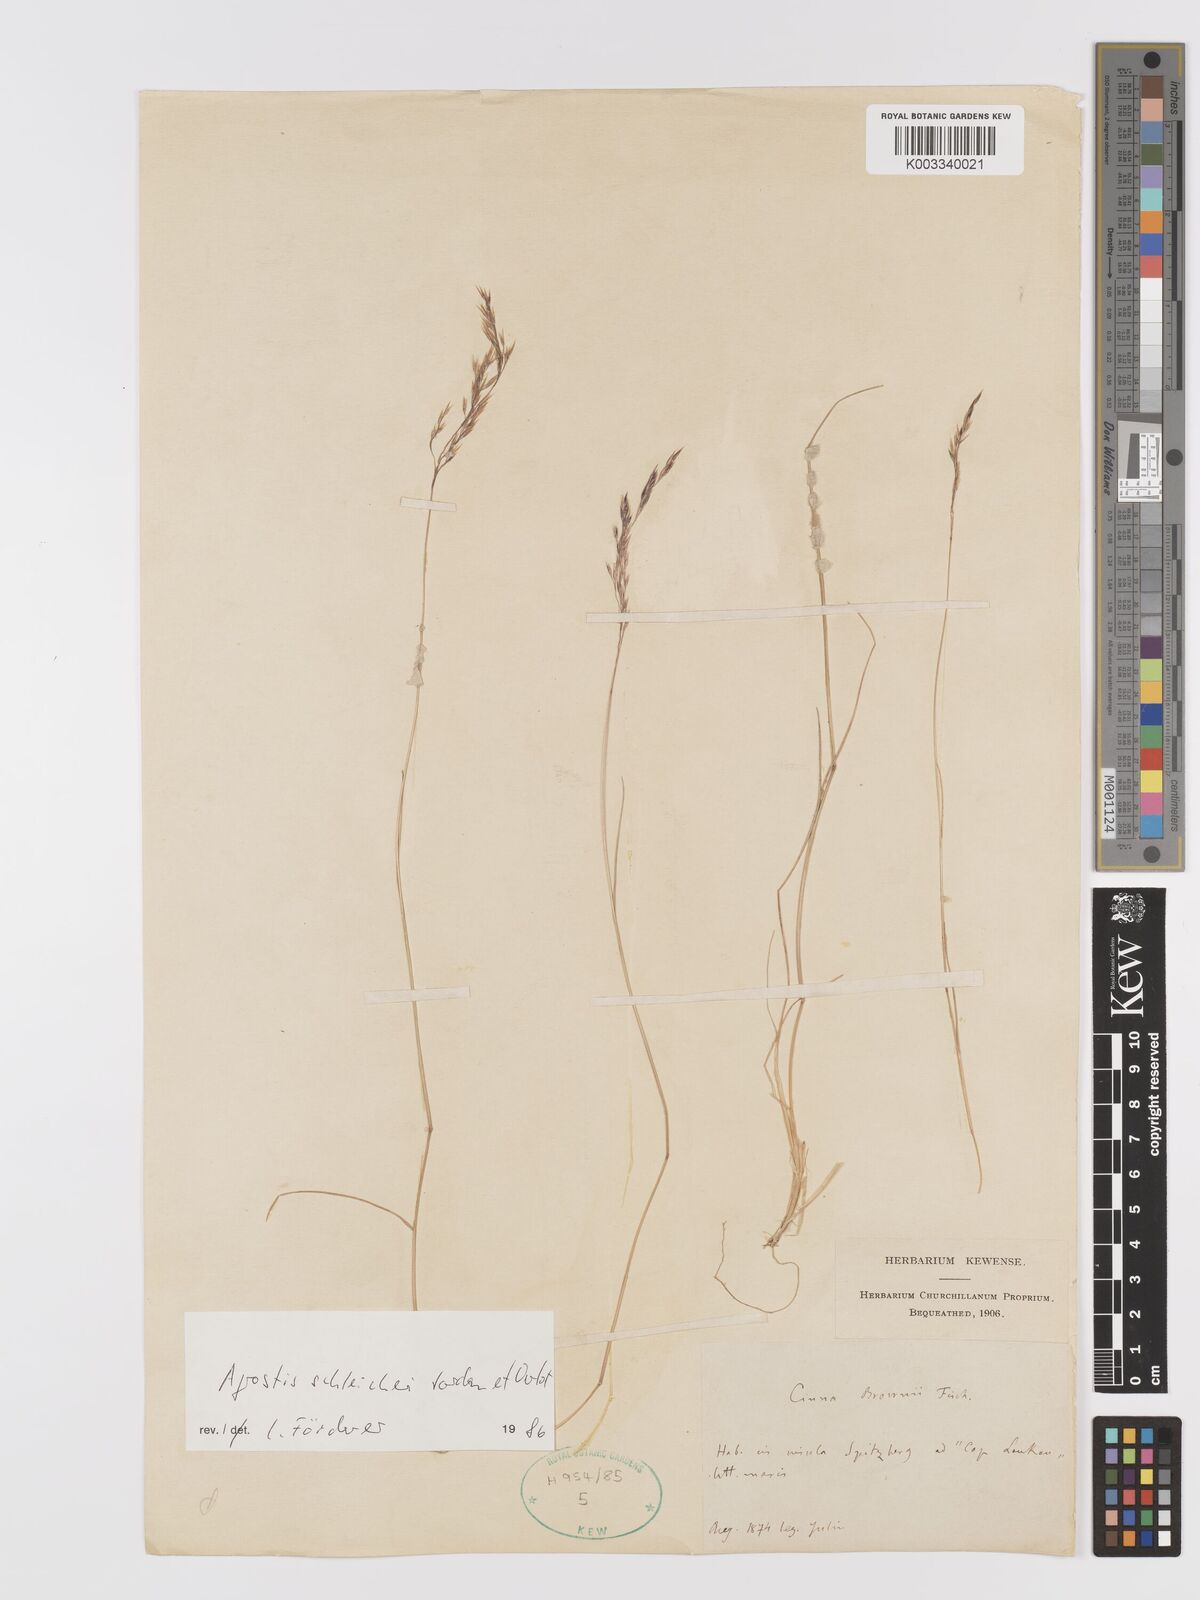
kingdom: Plantae
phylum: Tracheophyta
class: Liliopsida
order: Poales
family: Poaceae
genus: Alpagrostis
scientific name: Alpagrostis schleicheri
